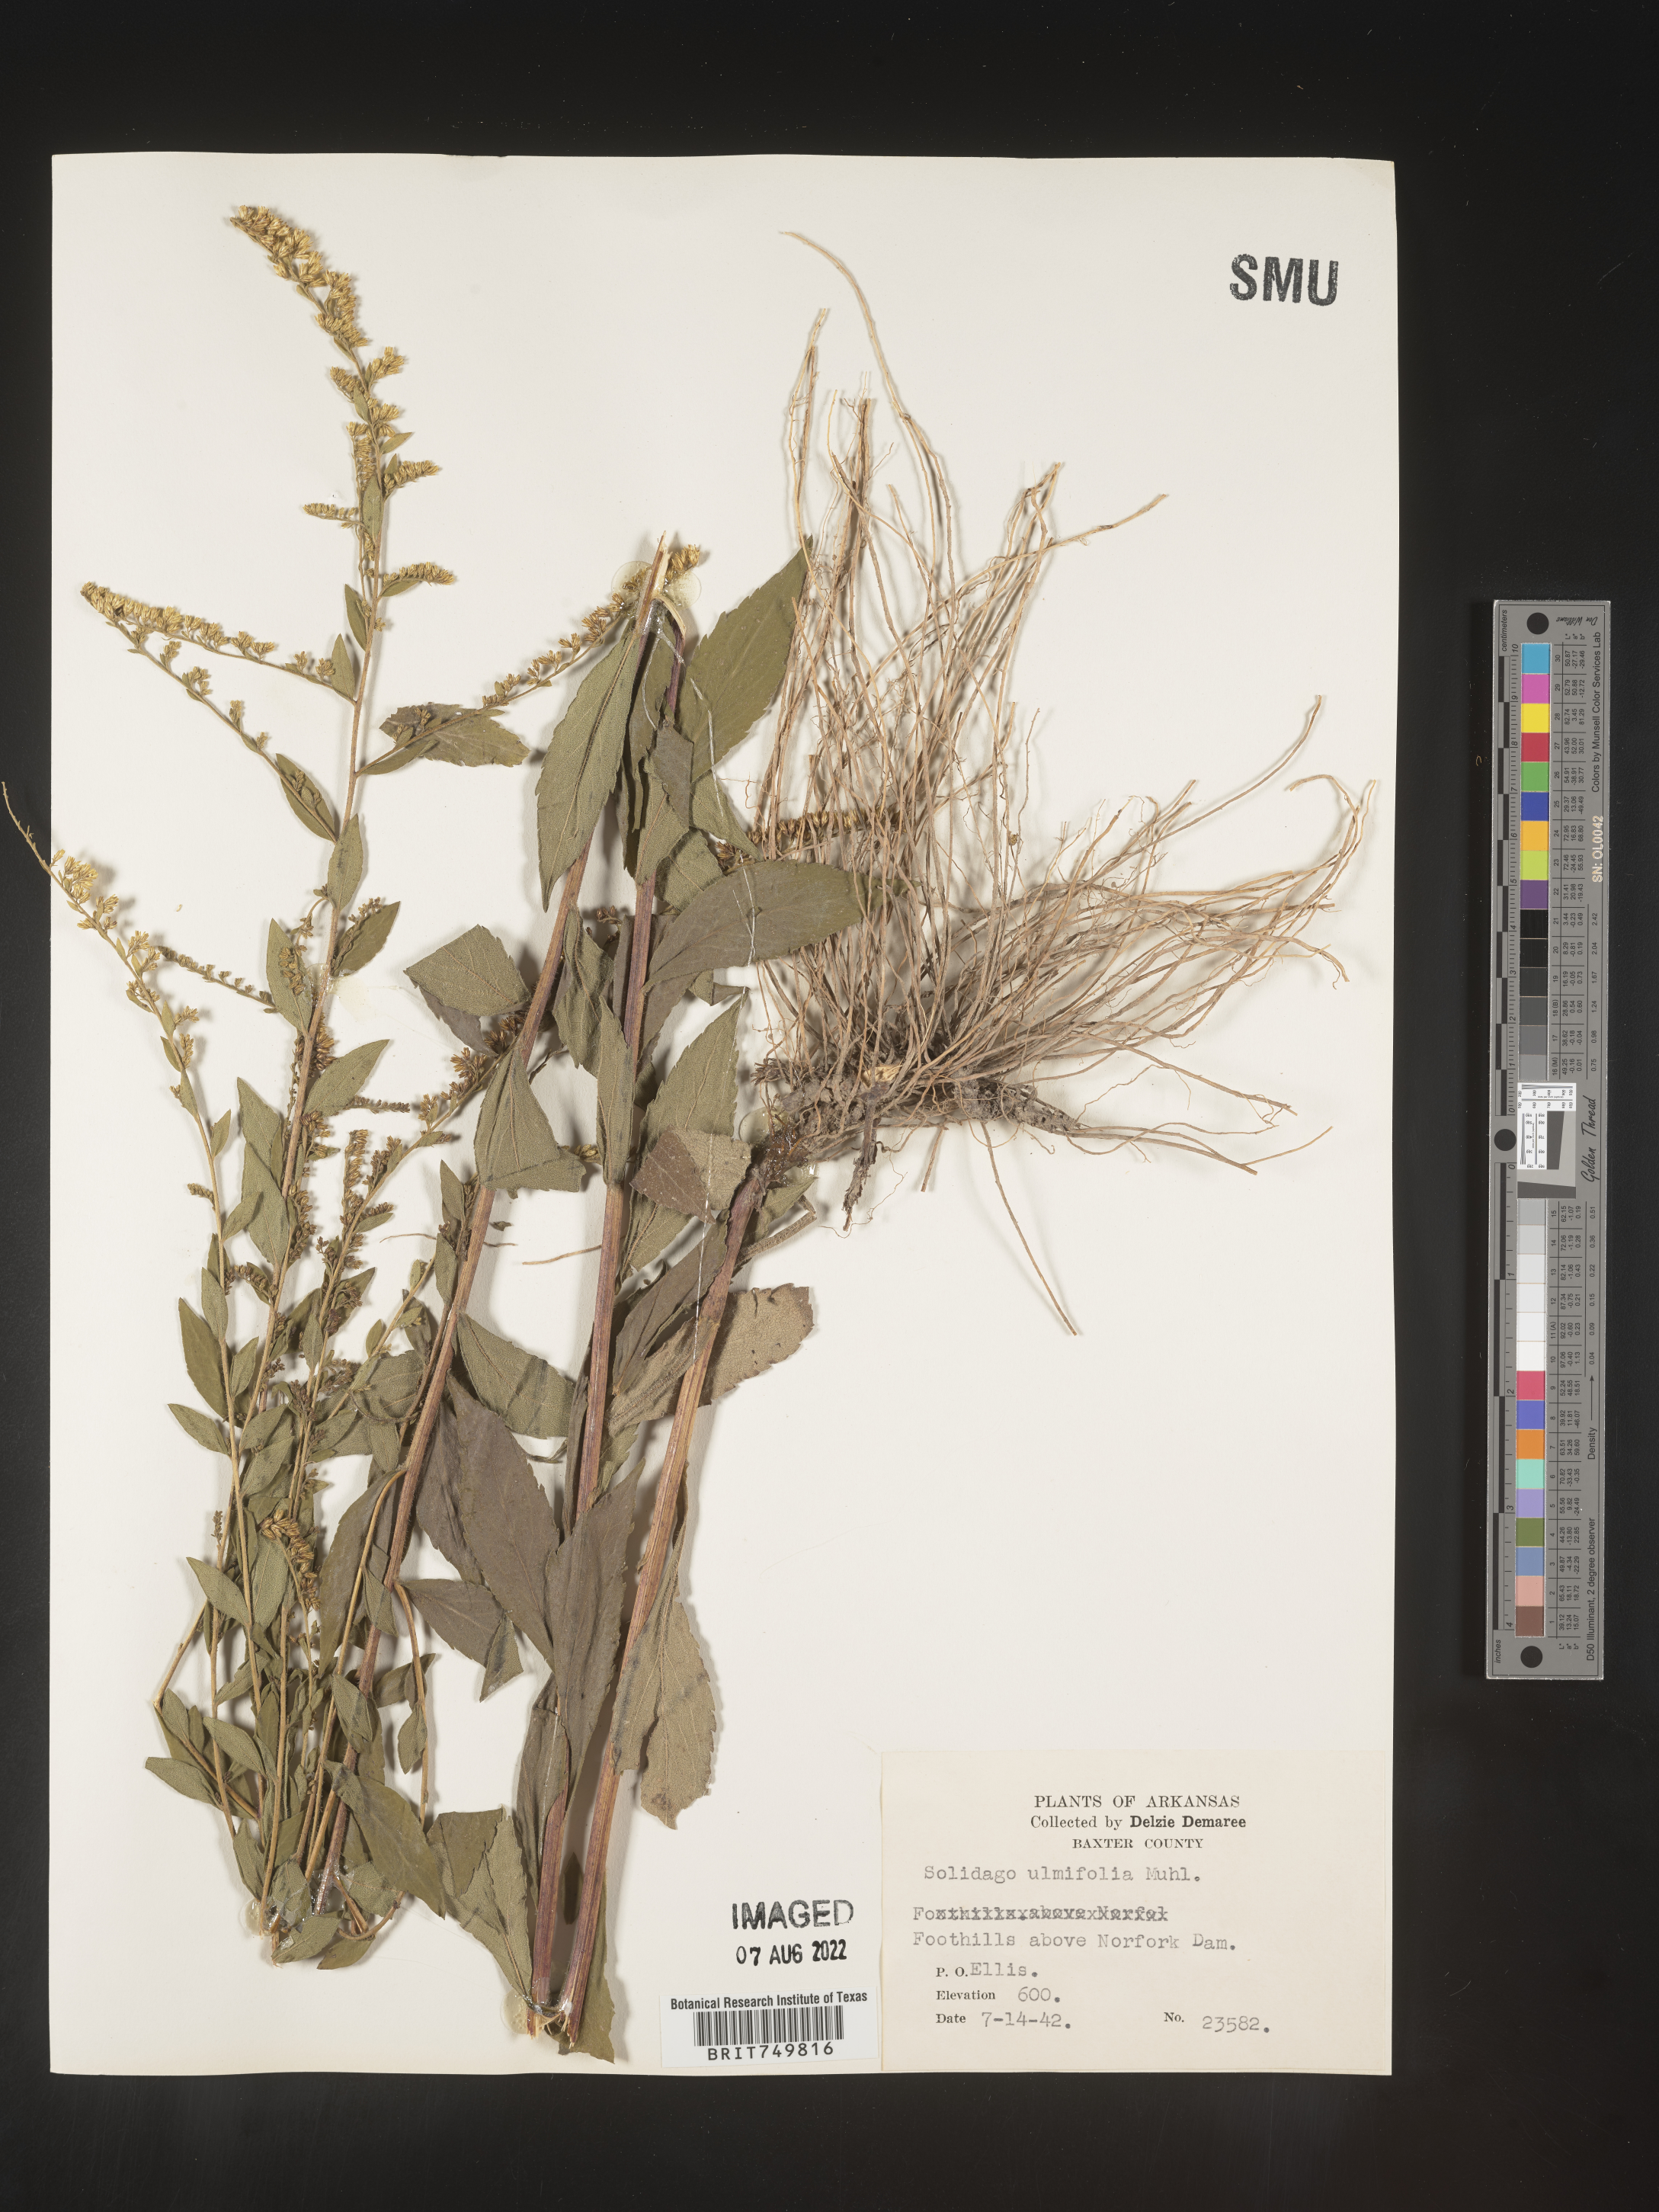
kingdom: Plantae
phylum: Tracheophyta
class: Magnoliopsida
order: Asterales
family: Asteraceae
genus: Solidago
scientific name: Solidago ulmifolia
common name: Elm-leaf goldenrod
